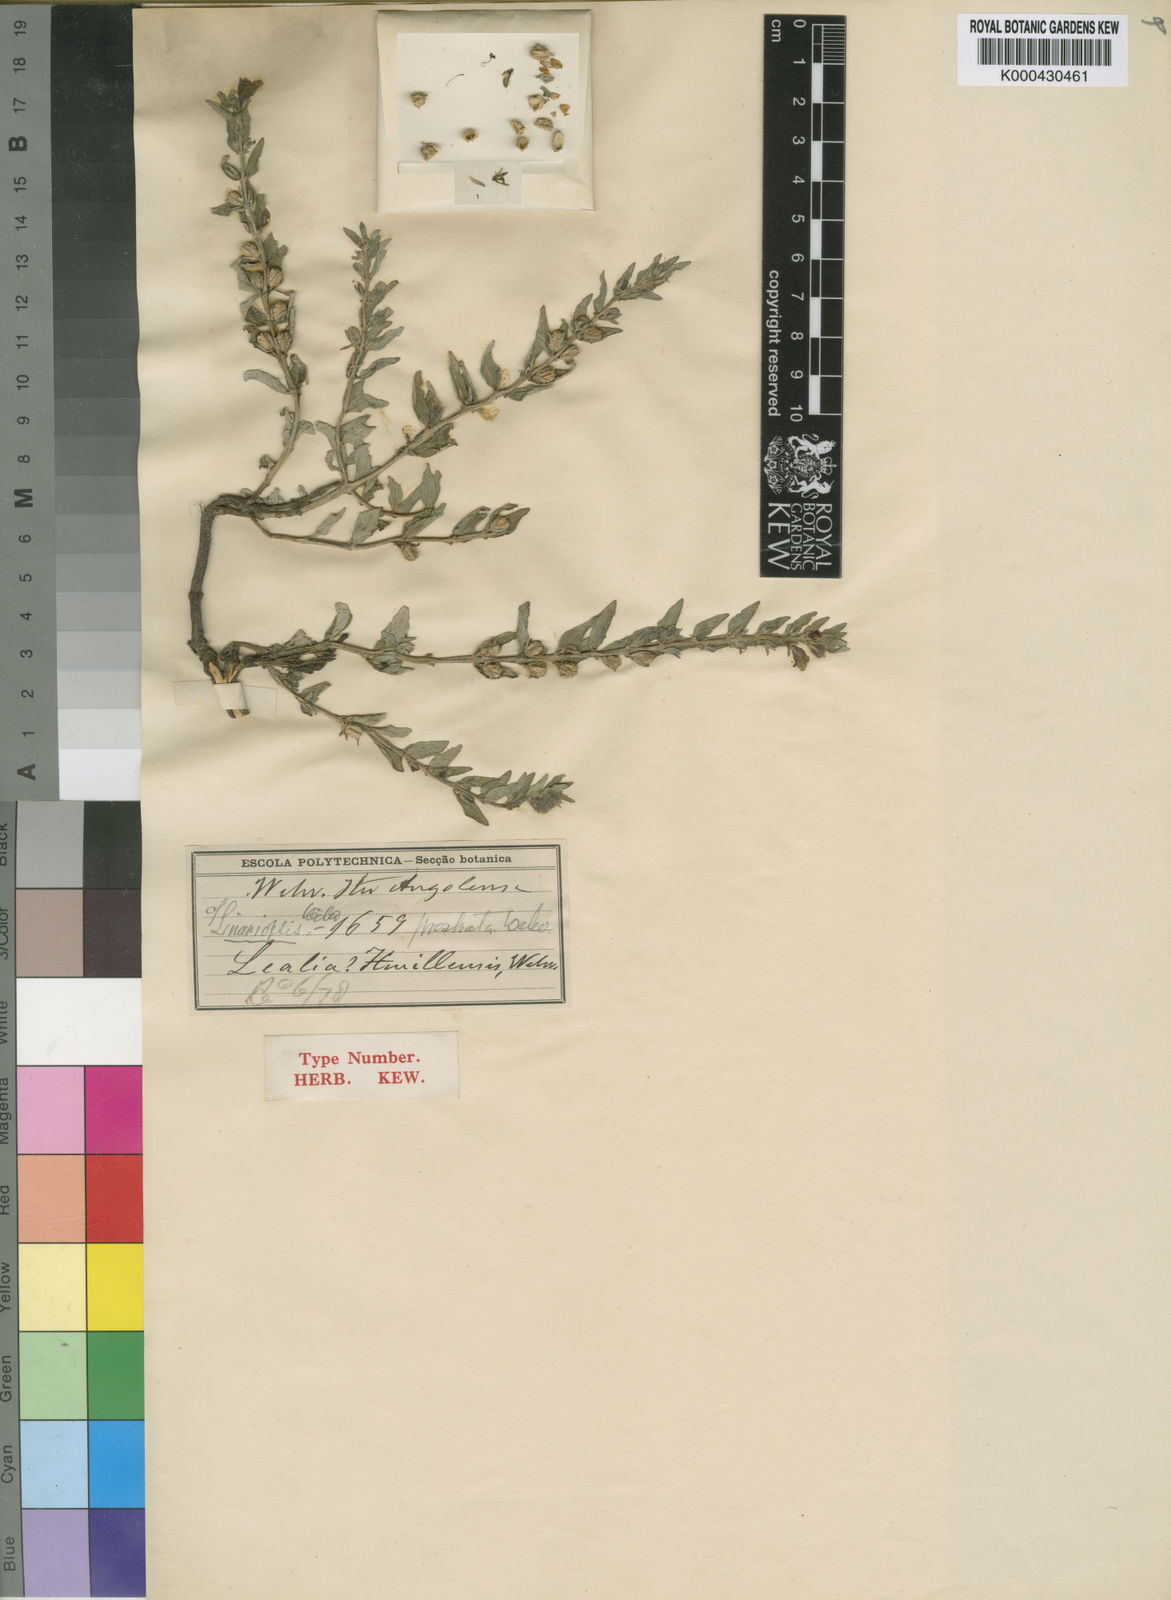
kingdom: Plantae
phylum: Tracheophyta
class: Magnoliopsida
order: Lamiales
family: Pedaliaceae
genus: Linariopsis
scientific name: Linariopsis prostrata
